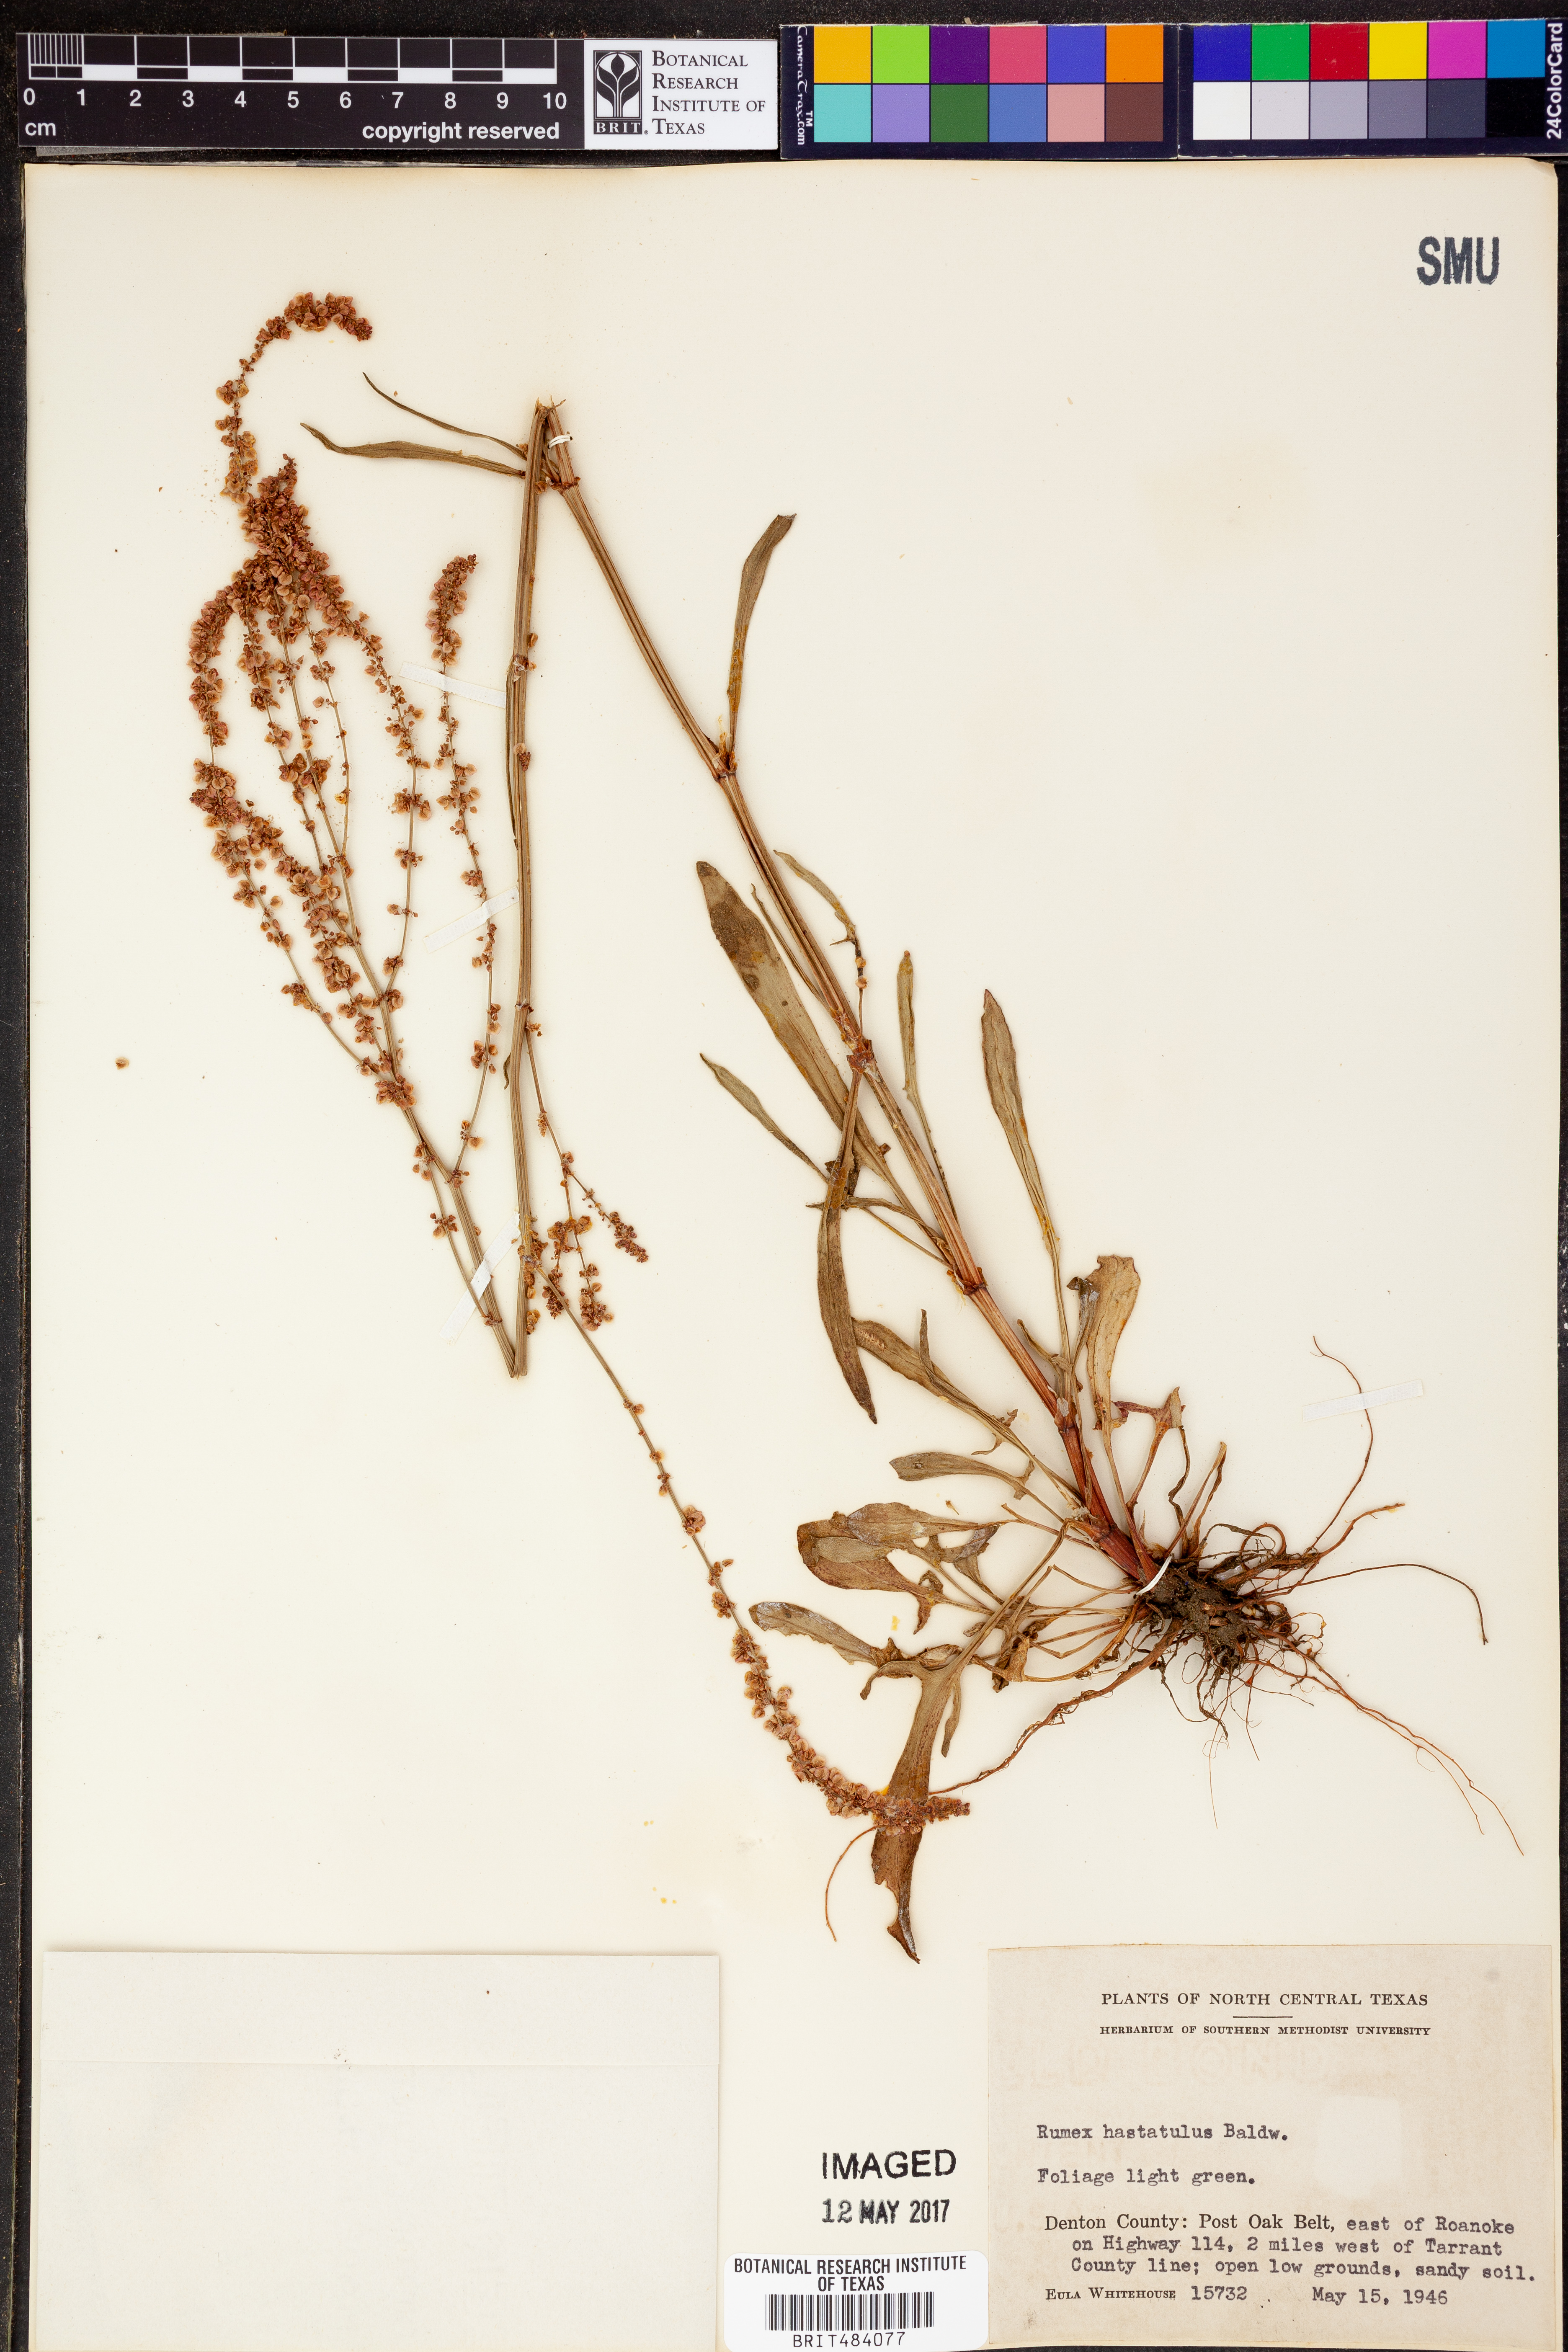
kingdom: Plantae
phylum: Tracheophyta
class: Magnoliopsida
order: Caryophyllales
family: Polygonaceae
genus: Rumex
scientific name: Rumex hastatulus
